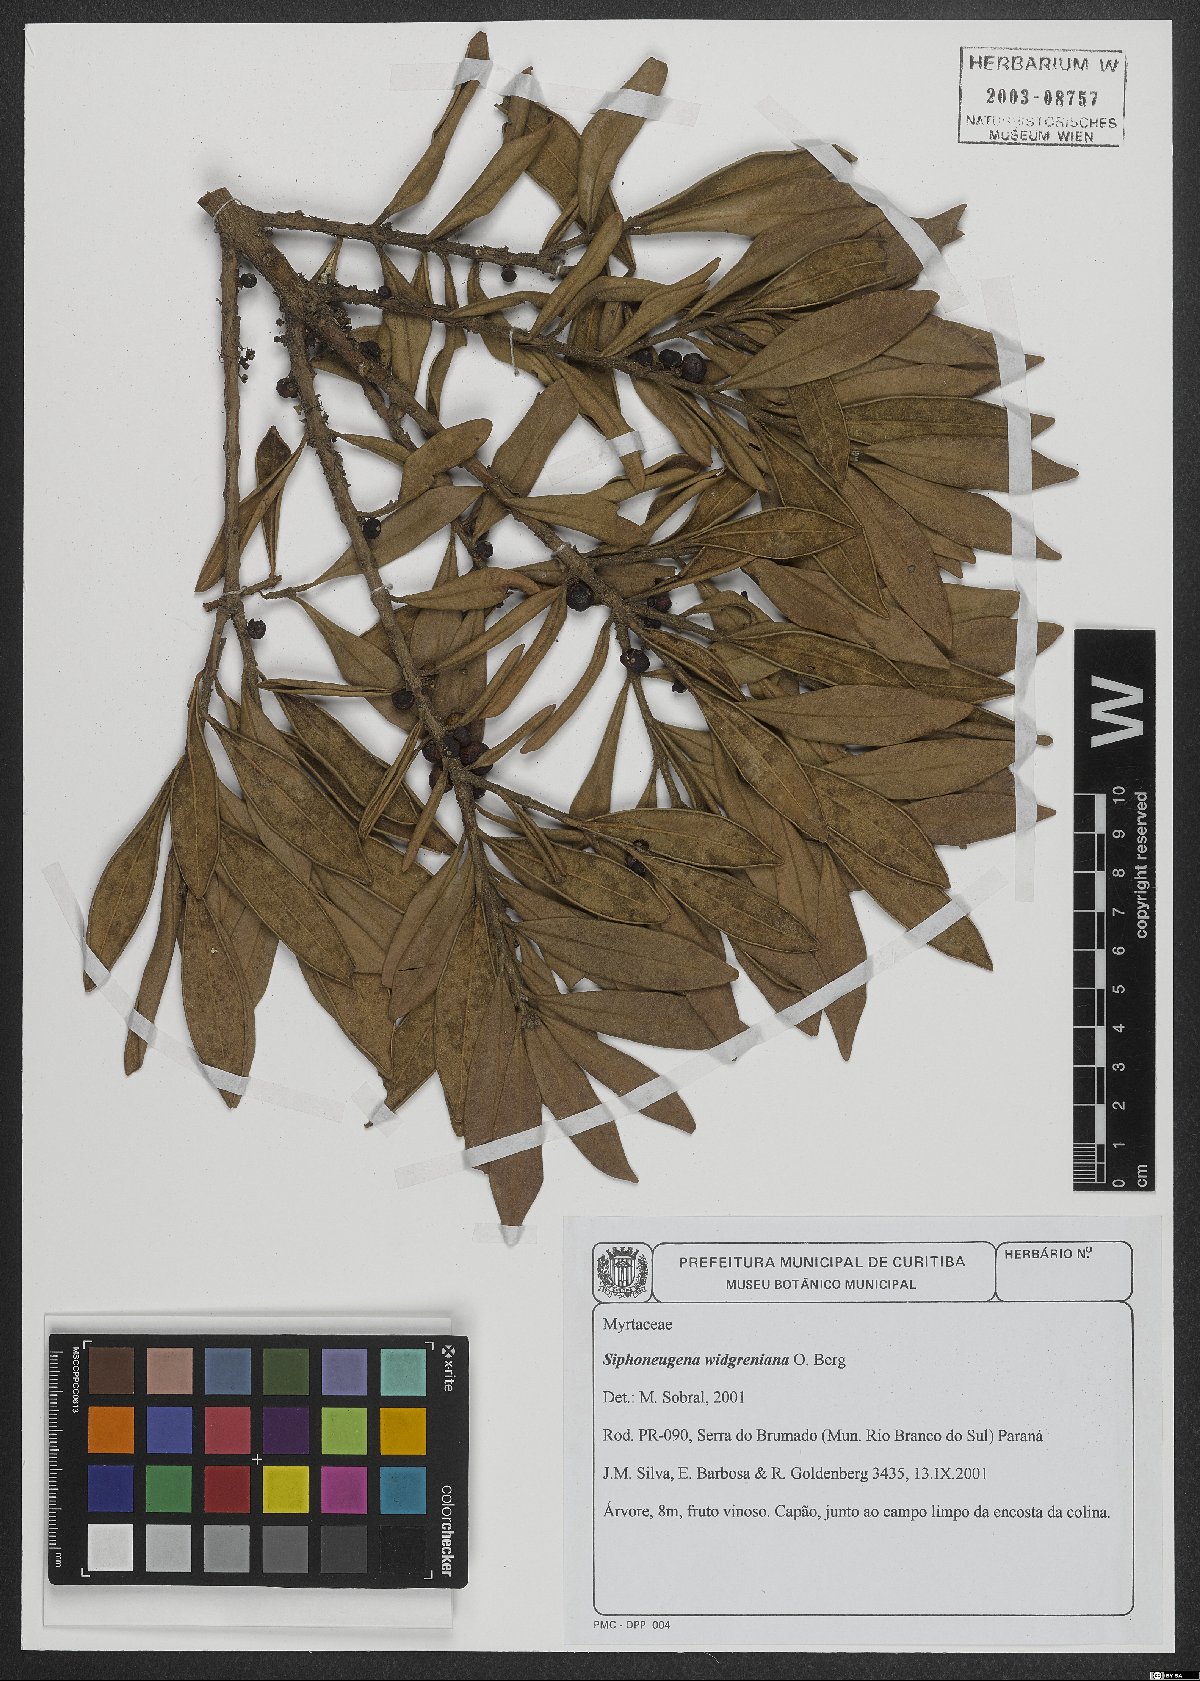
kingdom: Plantae
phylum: Tracheophyta
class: Magnoliopsida
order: Myrtales
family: Myrtaceae
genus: Siphoneugena
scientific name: Siphoneugena crassifolia
